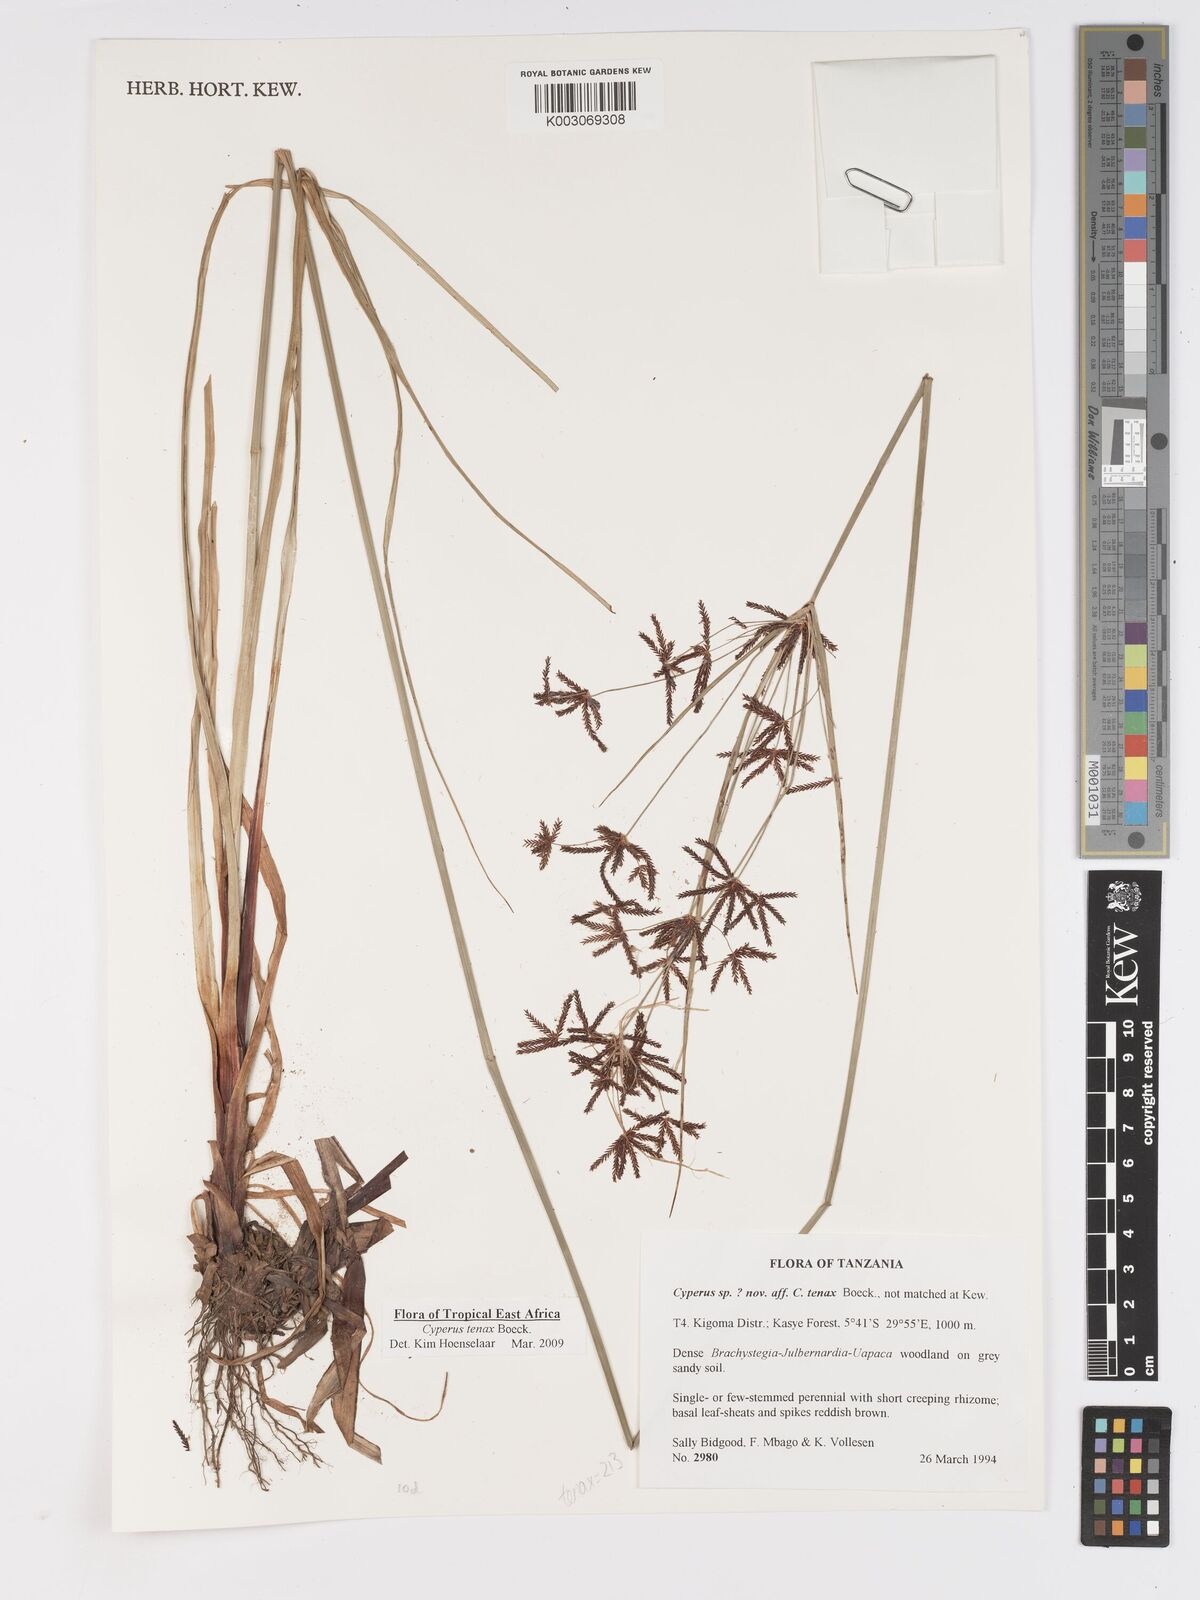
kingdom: Plantae
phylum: Tracheophyta
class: Liliopsida
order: Poales
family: Cyperaceae
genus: Cyperus
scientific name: Cyperus tenax
